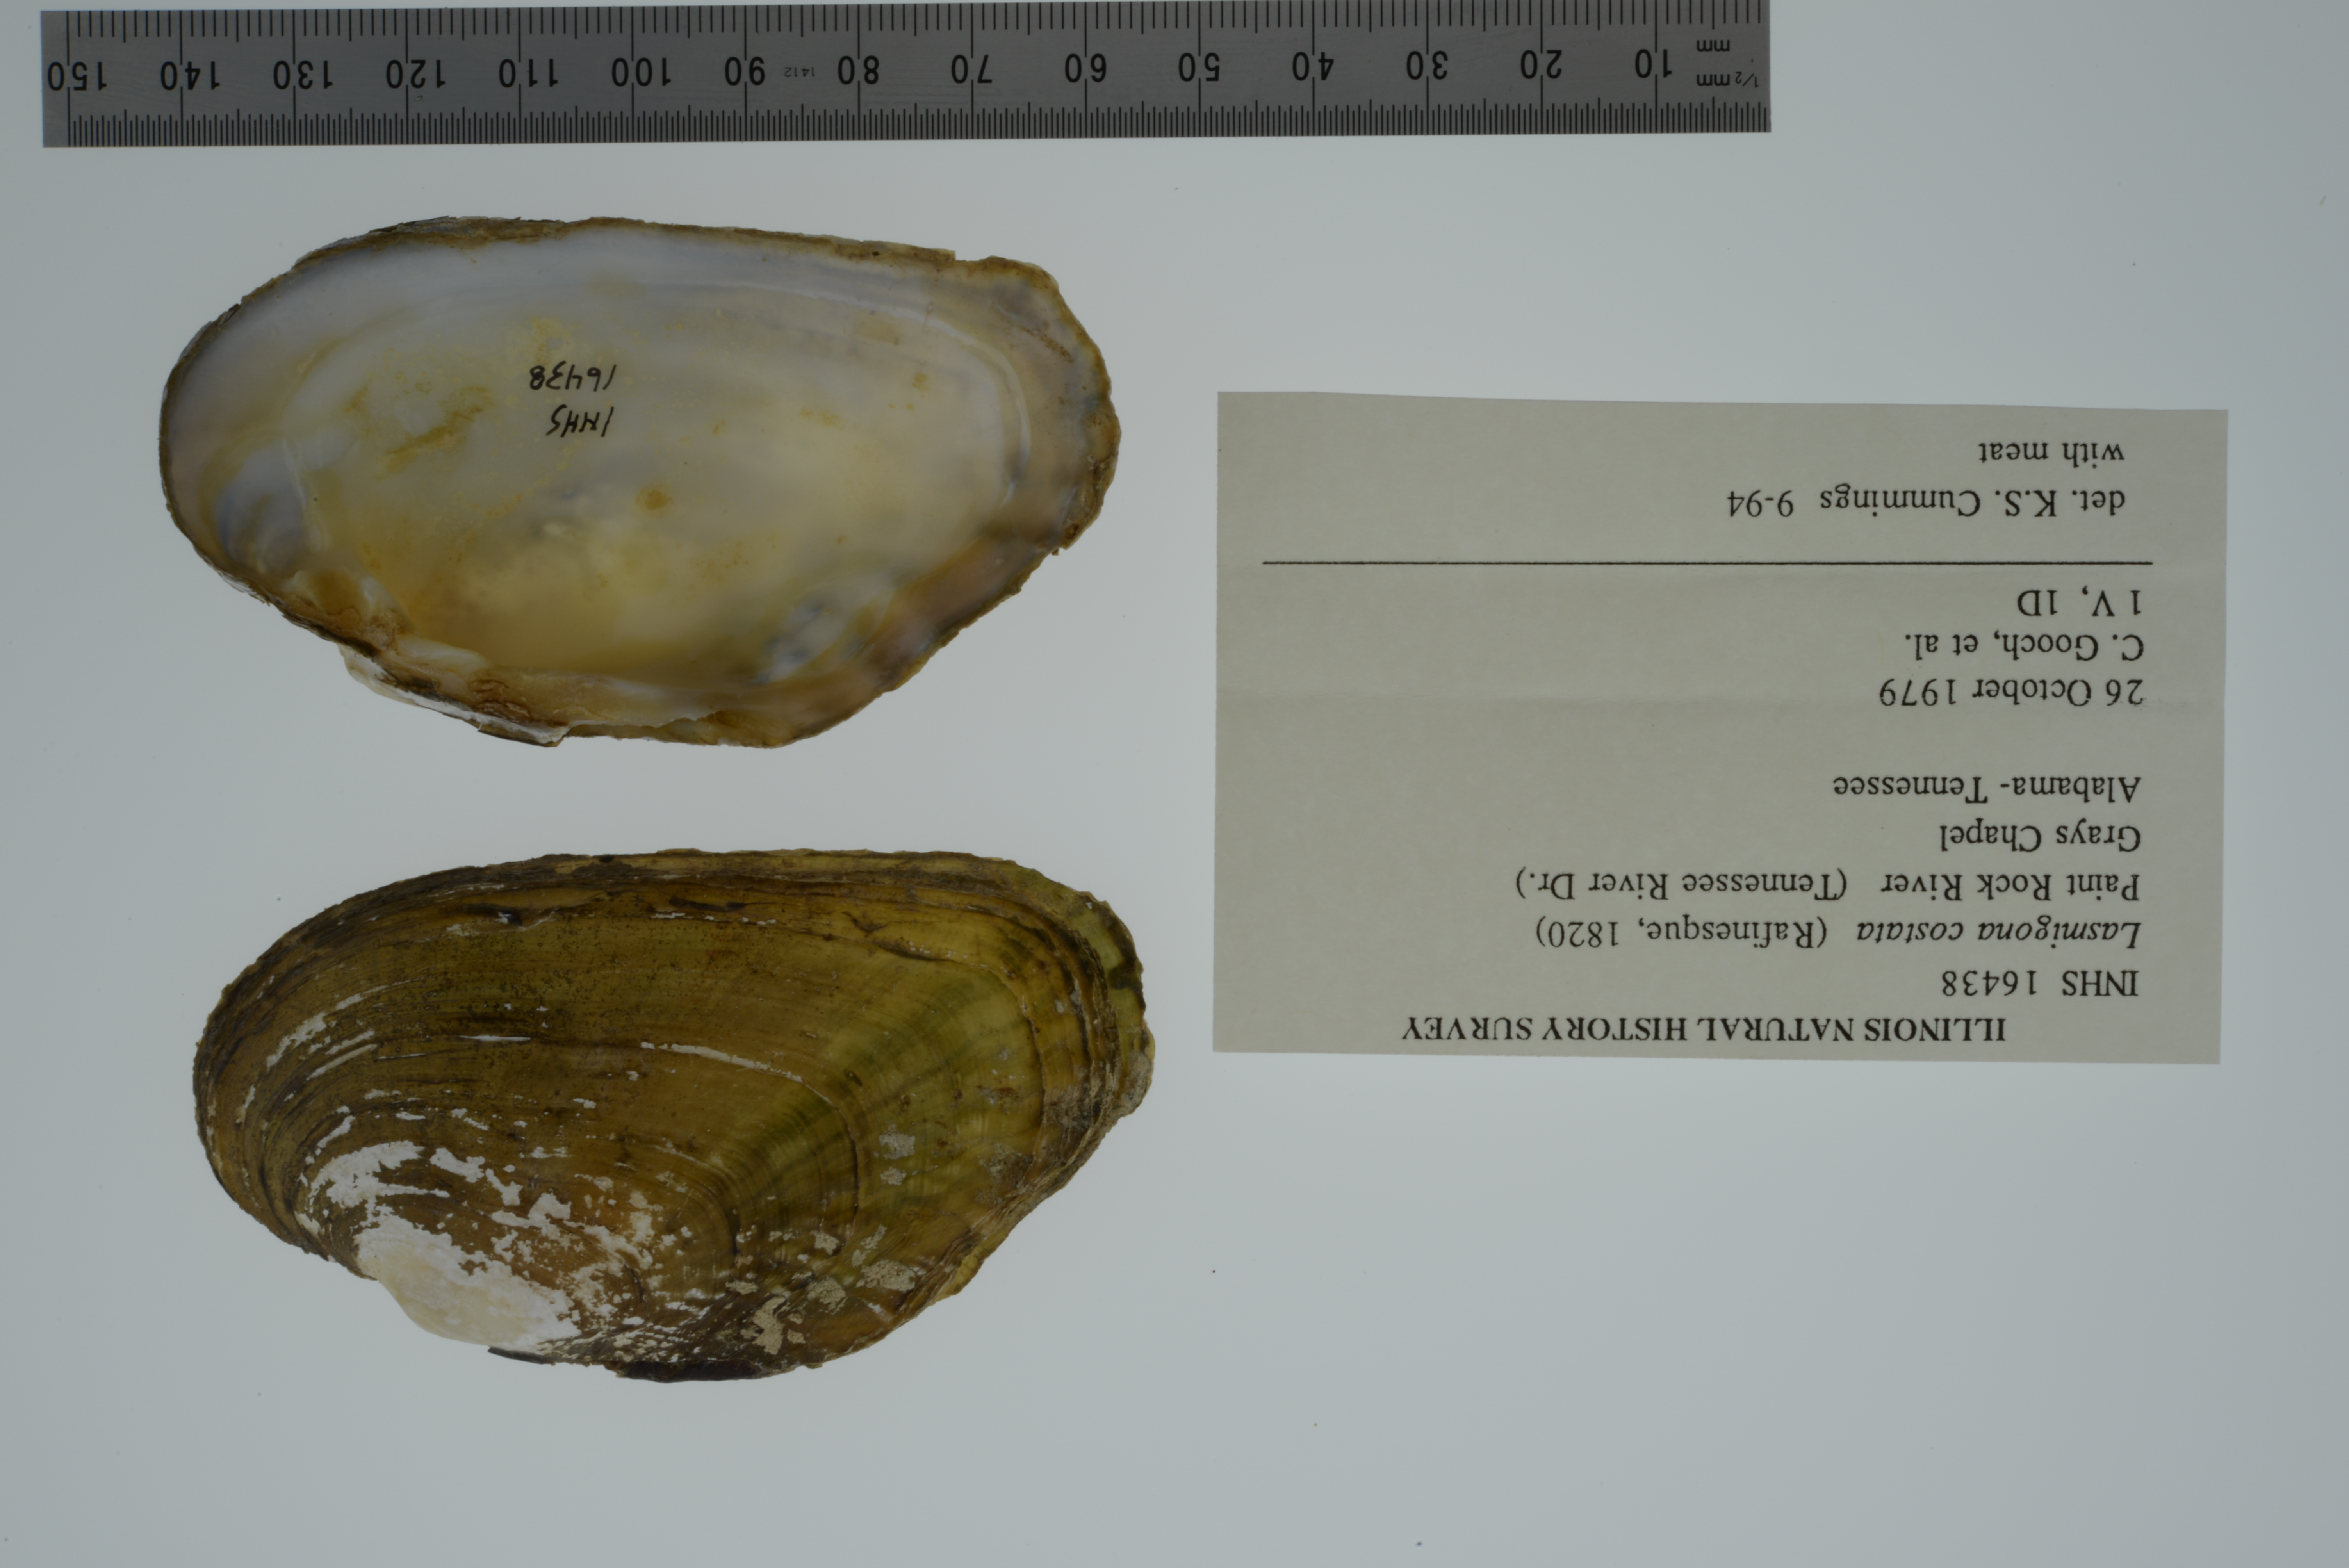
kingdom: Animalia
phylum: Mollusca
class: Bivalvia
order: Unionida
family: Unionidae
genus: Lasmigona
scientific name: Lasmigona costata
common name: Flutedshell
